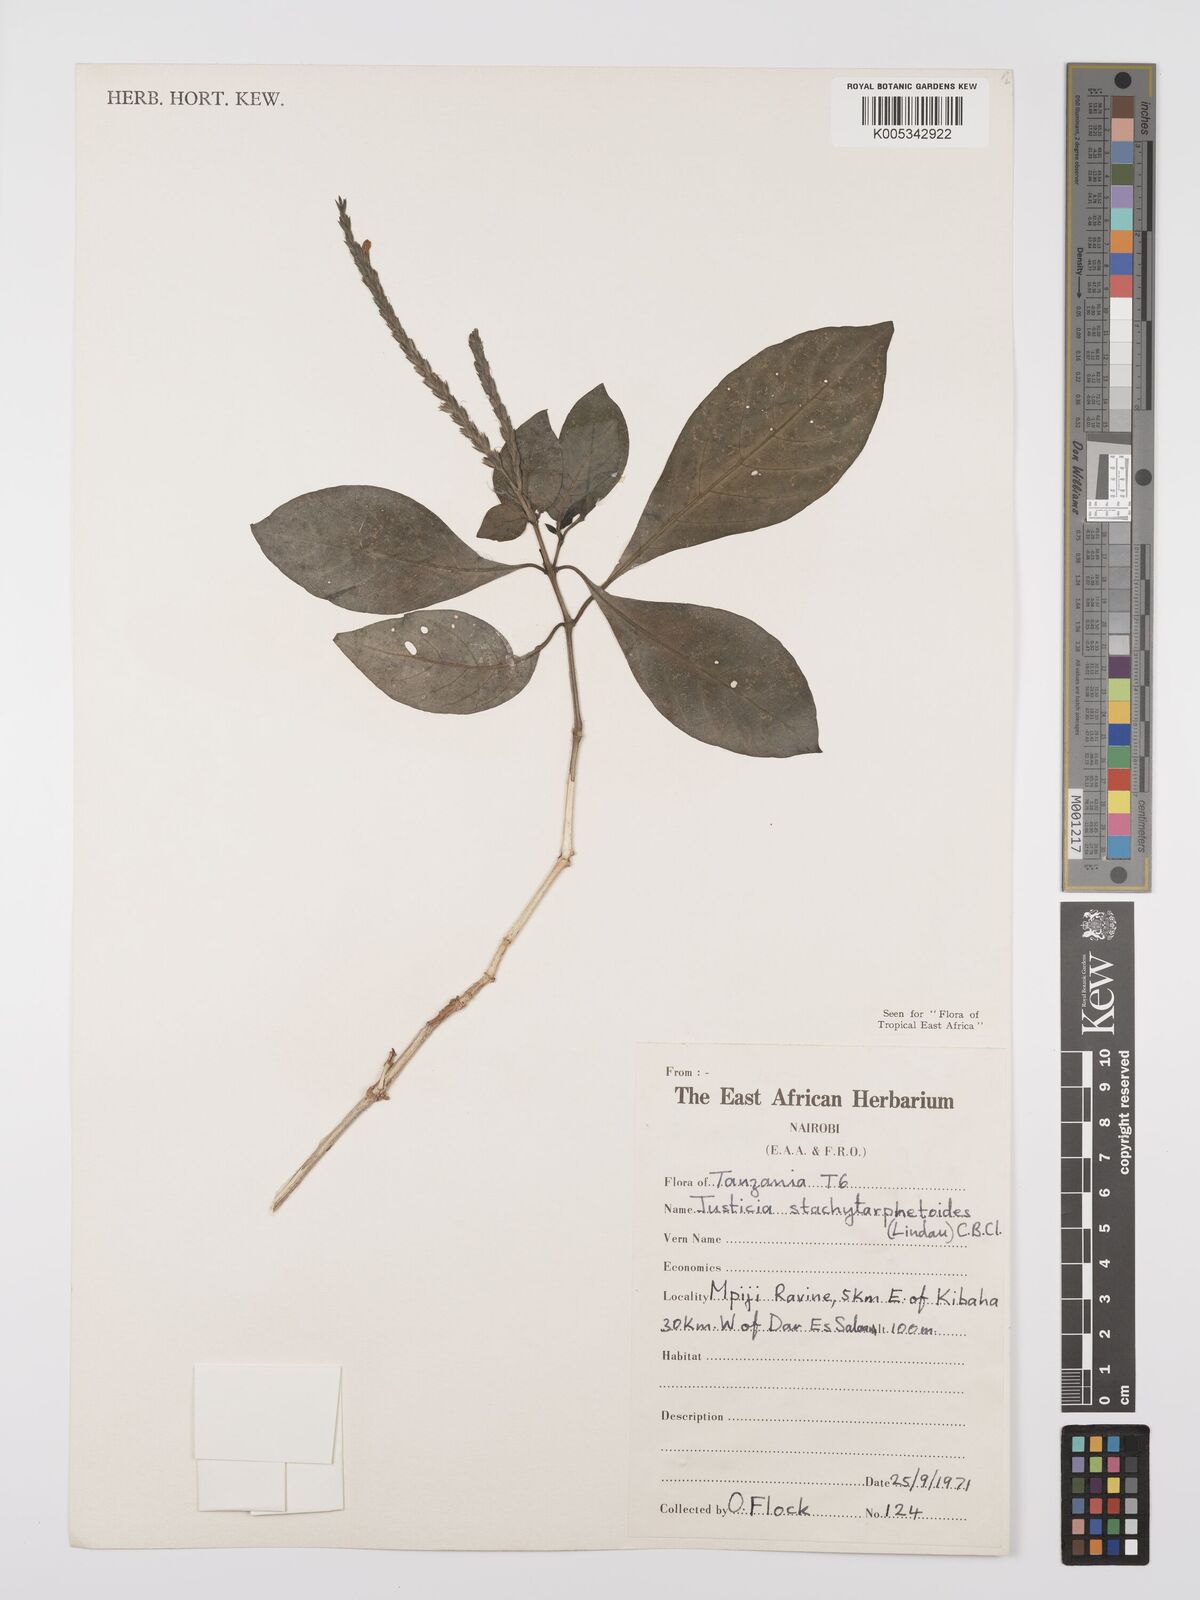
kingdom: Plantae
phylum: Tracheophyta
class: Magnoliopsida
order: Lamiales
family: Acanthaceae
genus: Justicia
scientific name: Justicia stachytarphetoides
